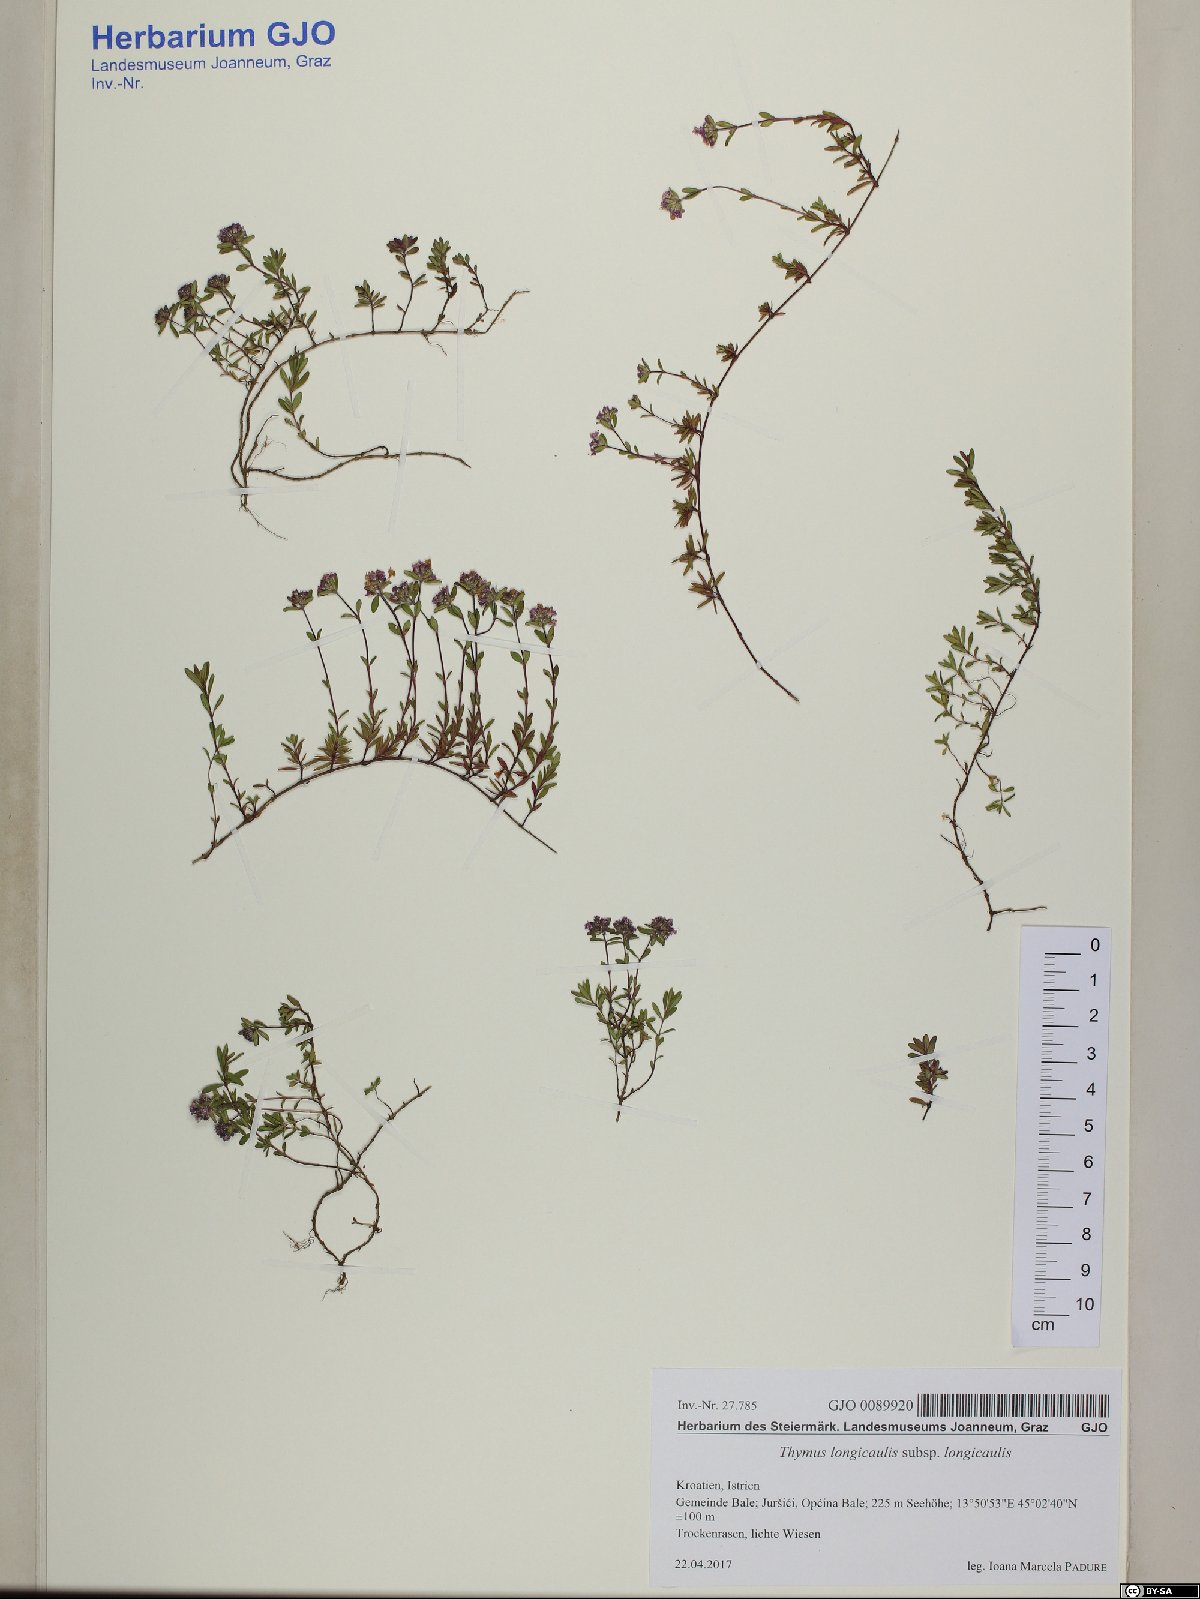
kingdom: Plantae
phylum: Tracheophyta
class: Magnoliopsida
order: Lamiales
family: Lamiaceae
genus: Thymus
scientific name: Thymus longicaulis
